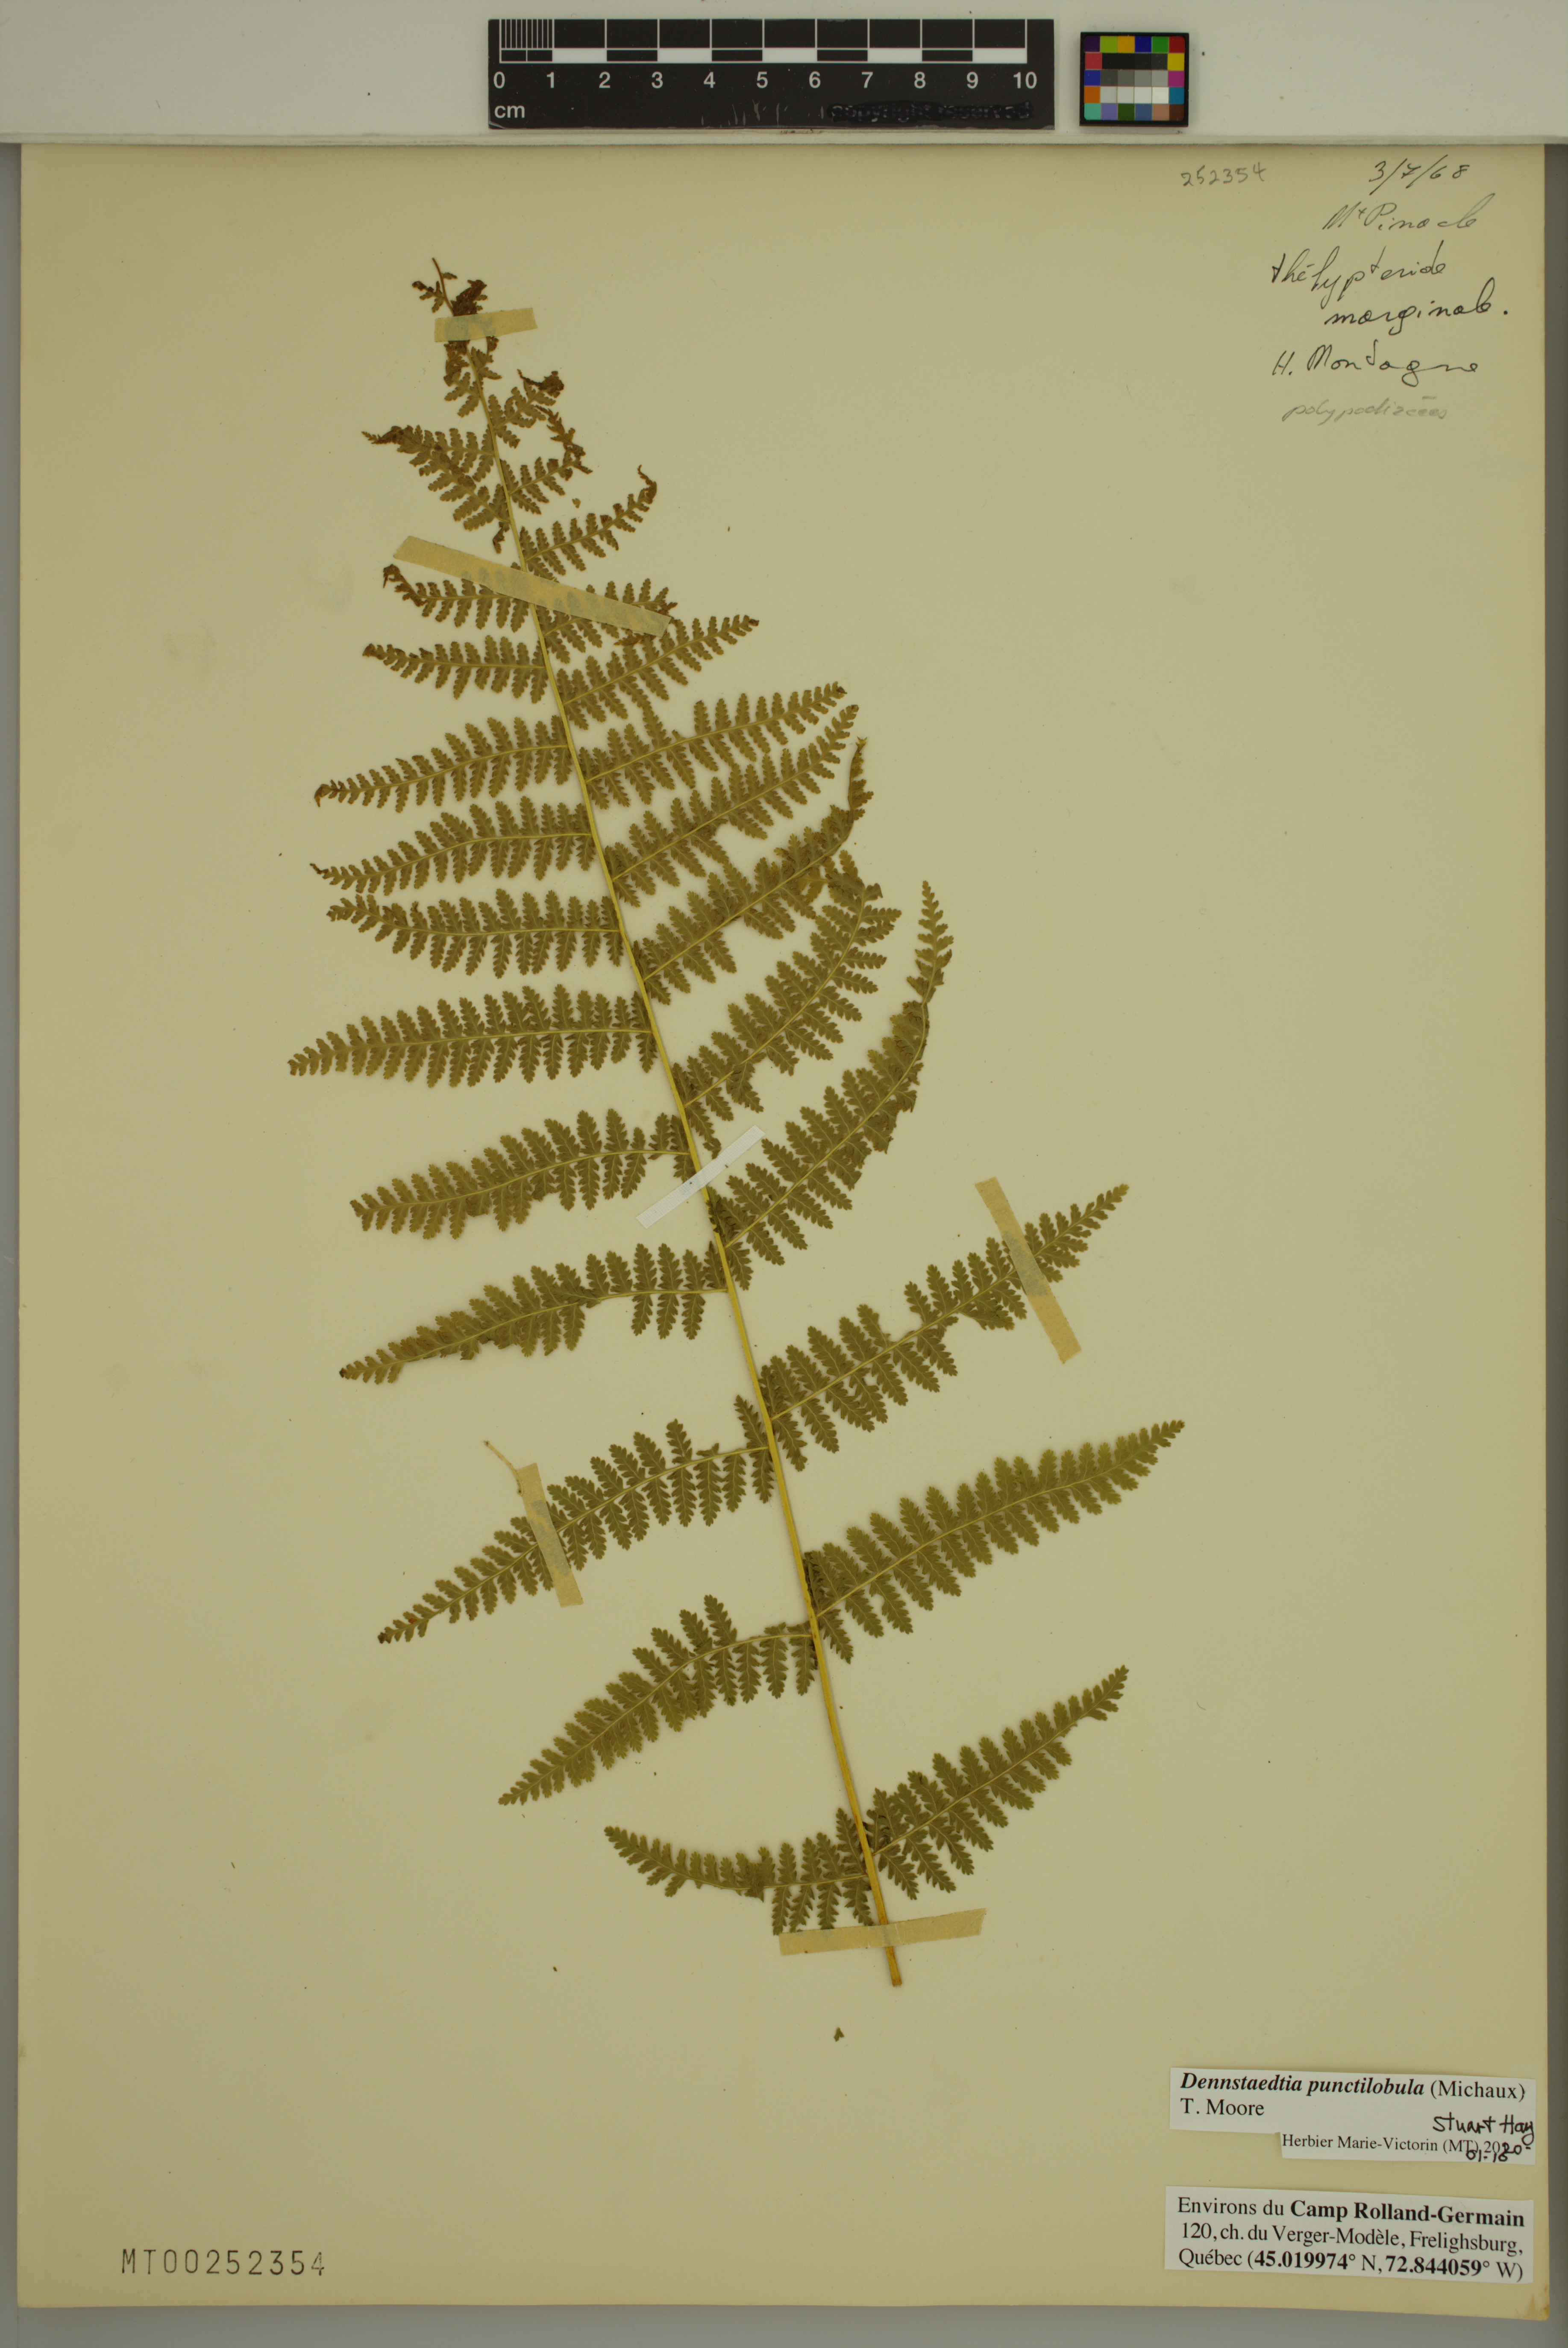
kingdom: Plantae
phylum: Tracheophyta
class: Polypodiopsida
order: Polypodiales
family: Dennstaedtiaceae
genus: Sitobolium
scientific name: Sitobolium punctilobum
